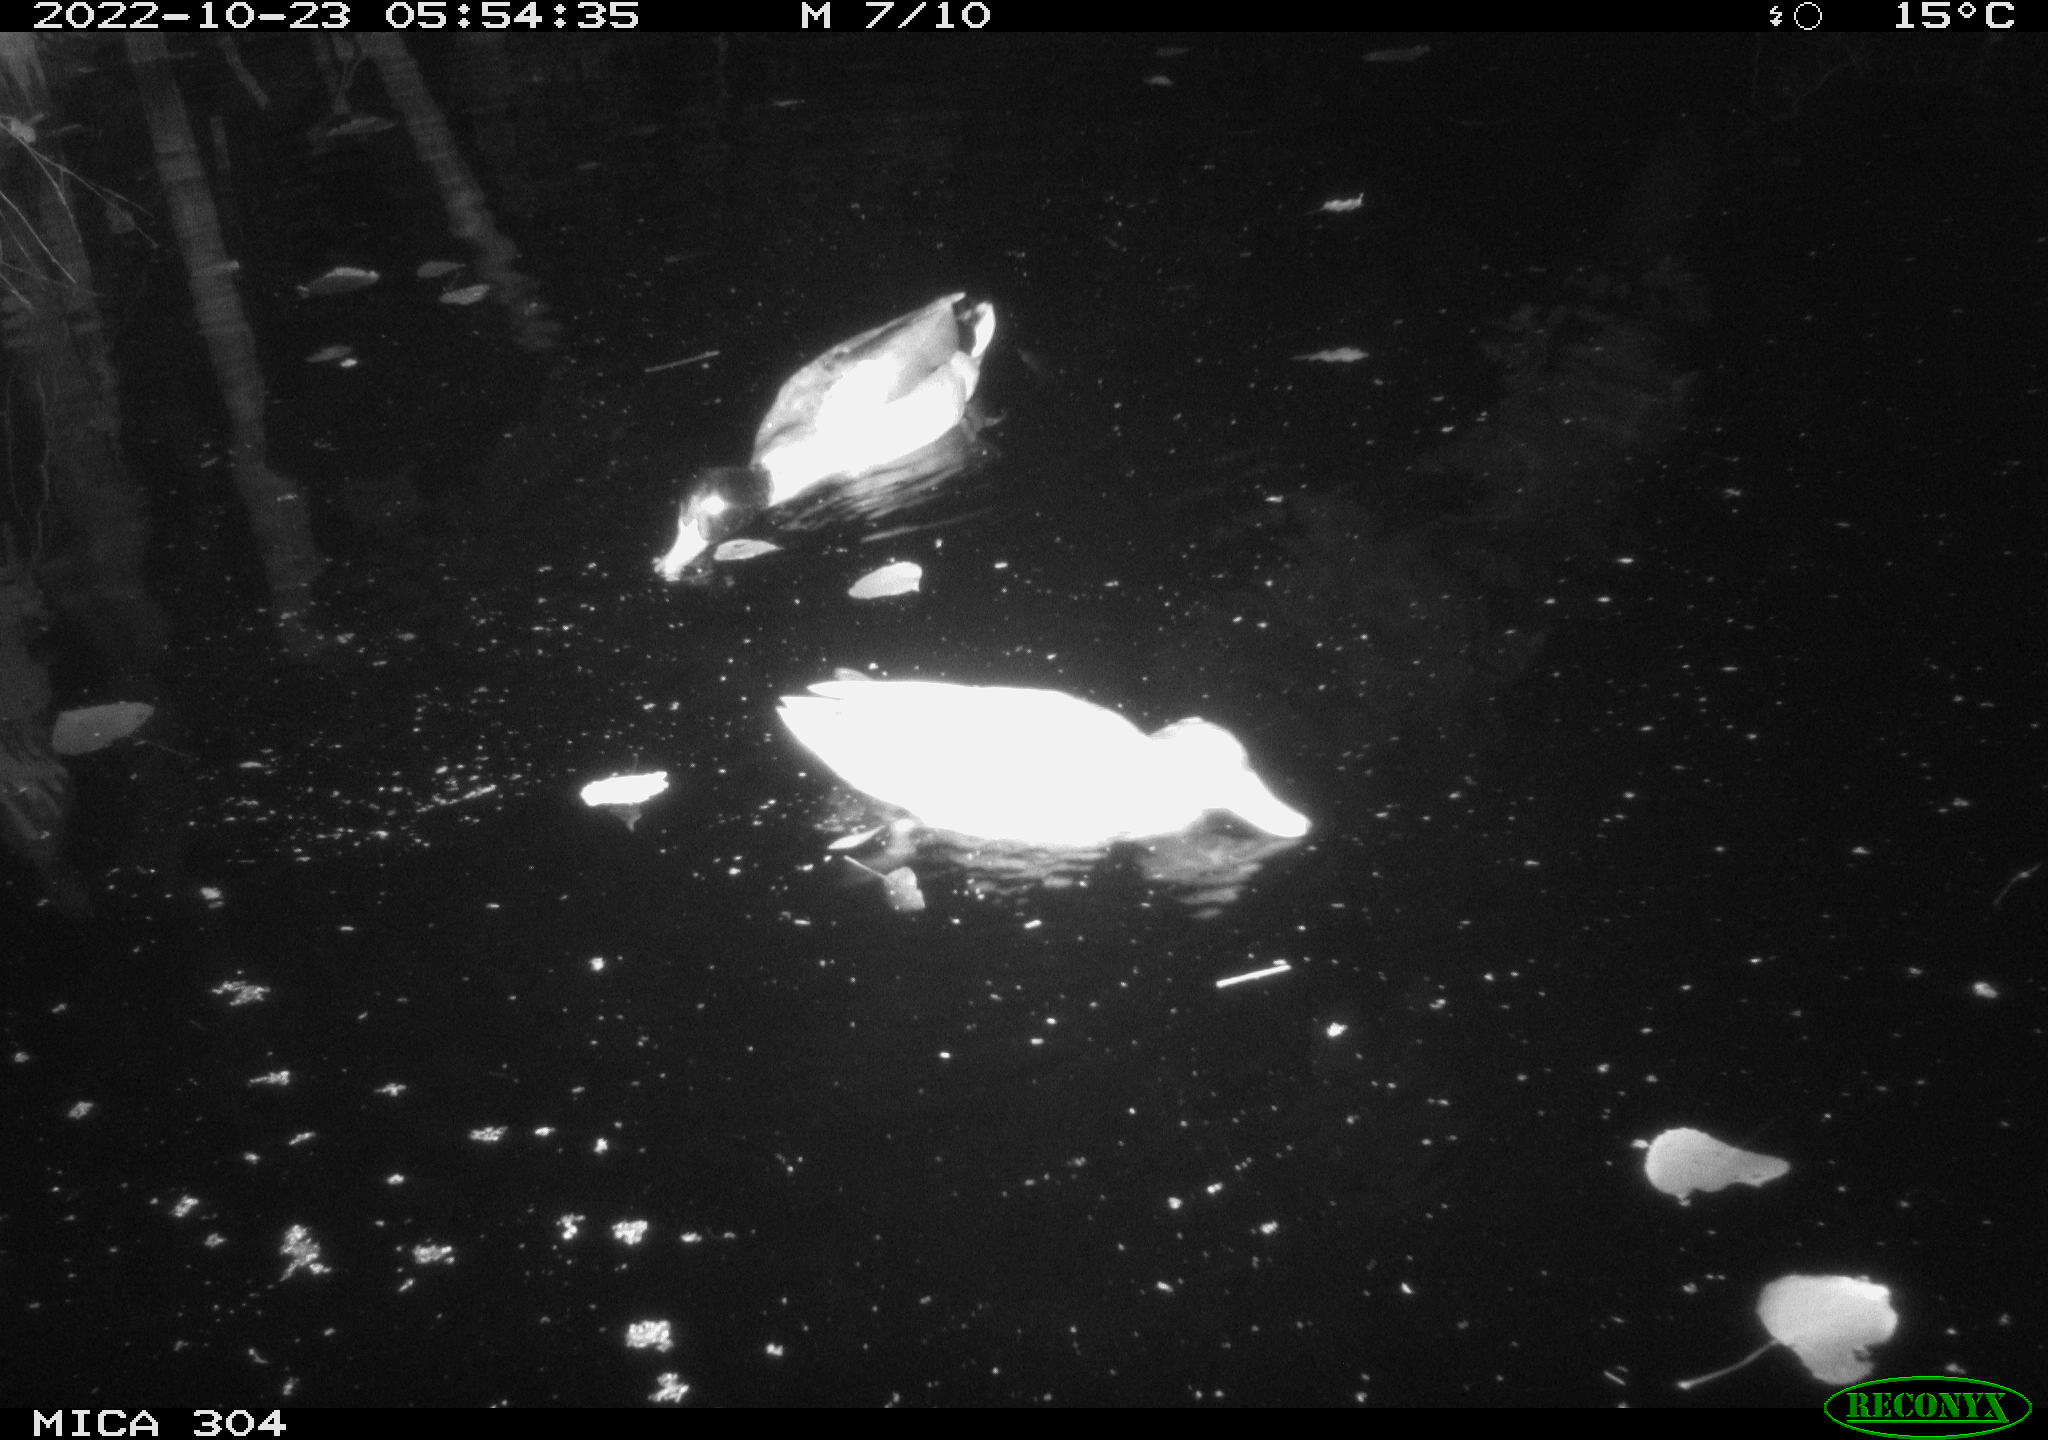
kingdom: Animalia
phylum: Chordata
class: Aves
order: Anseriformes
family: Anatidae
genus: Anas
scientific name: Anas
